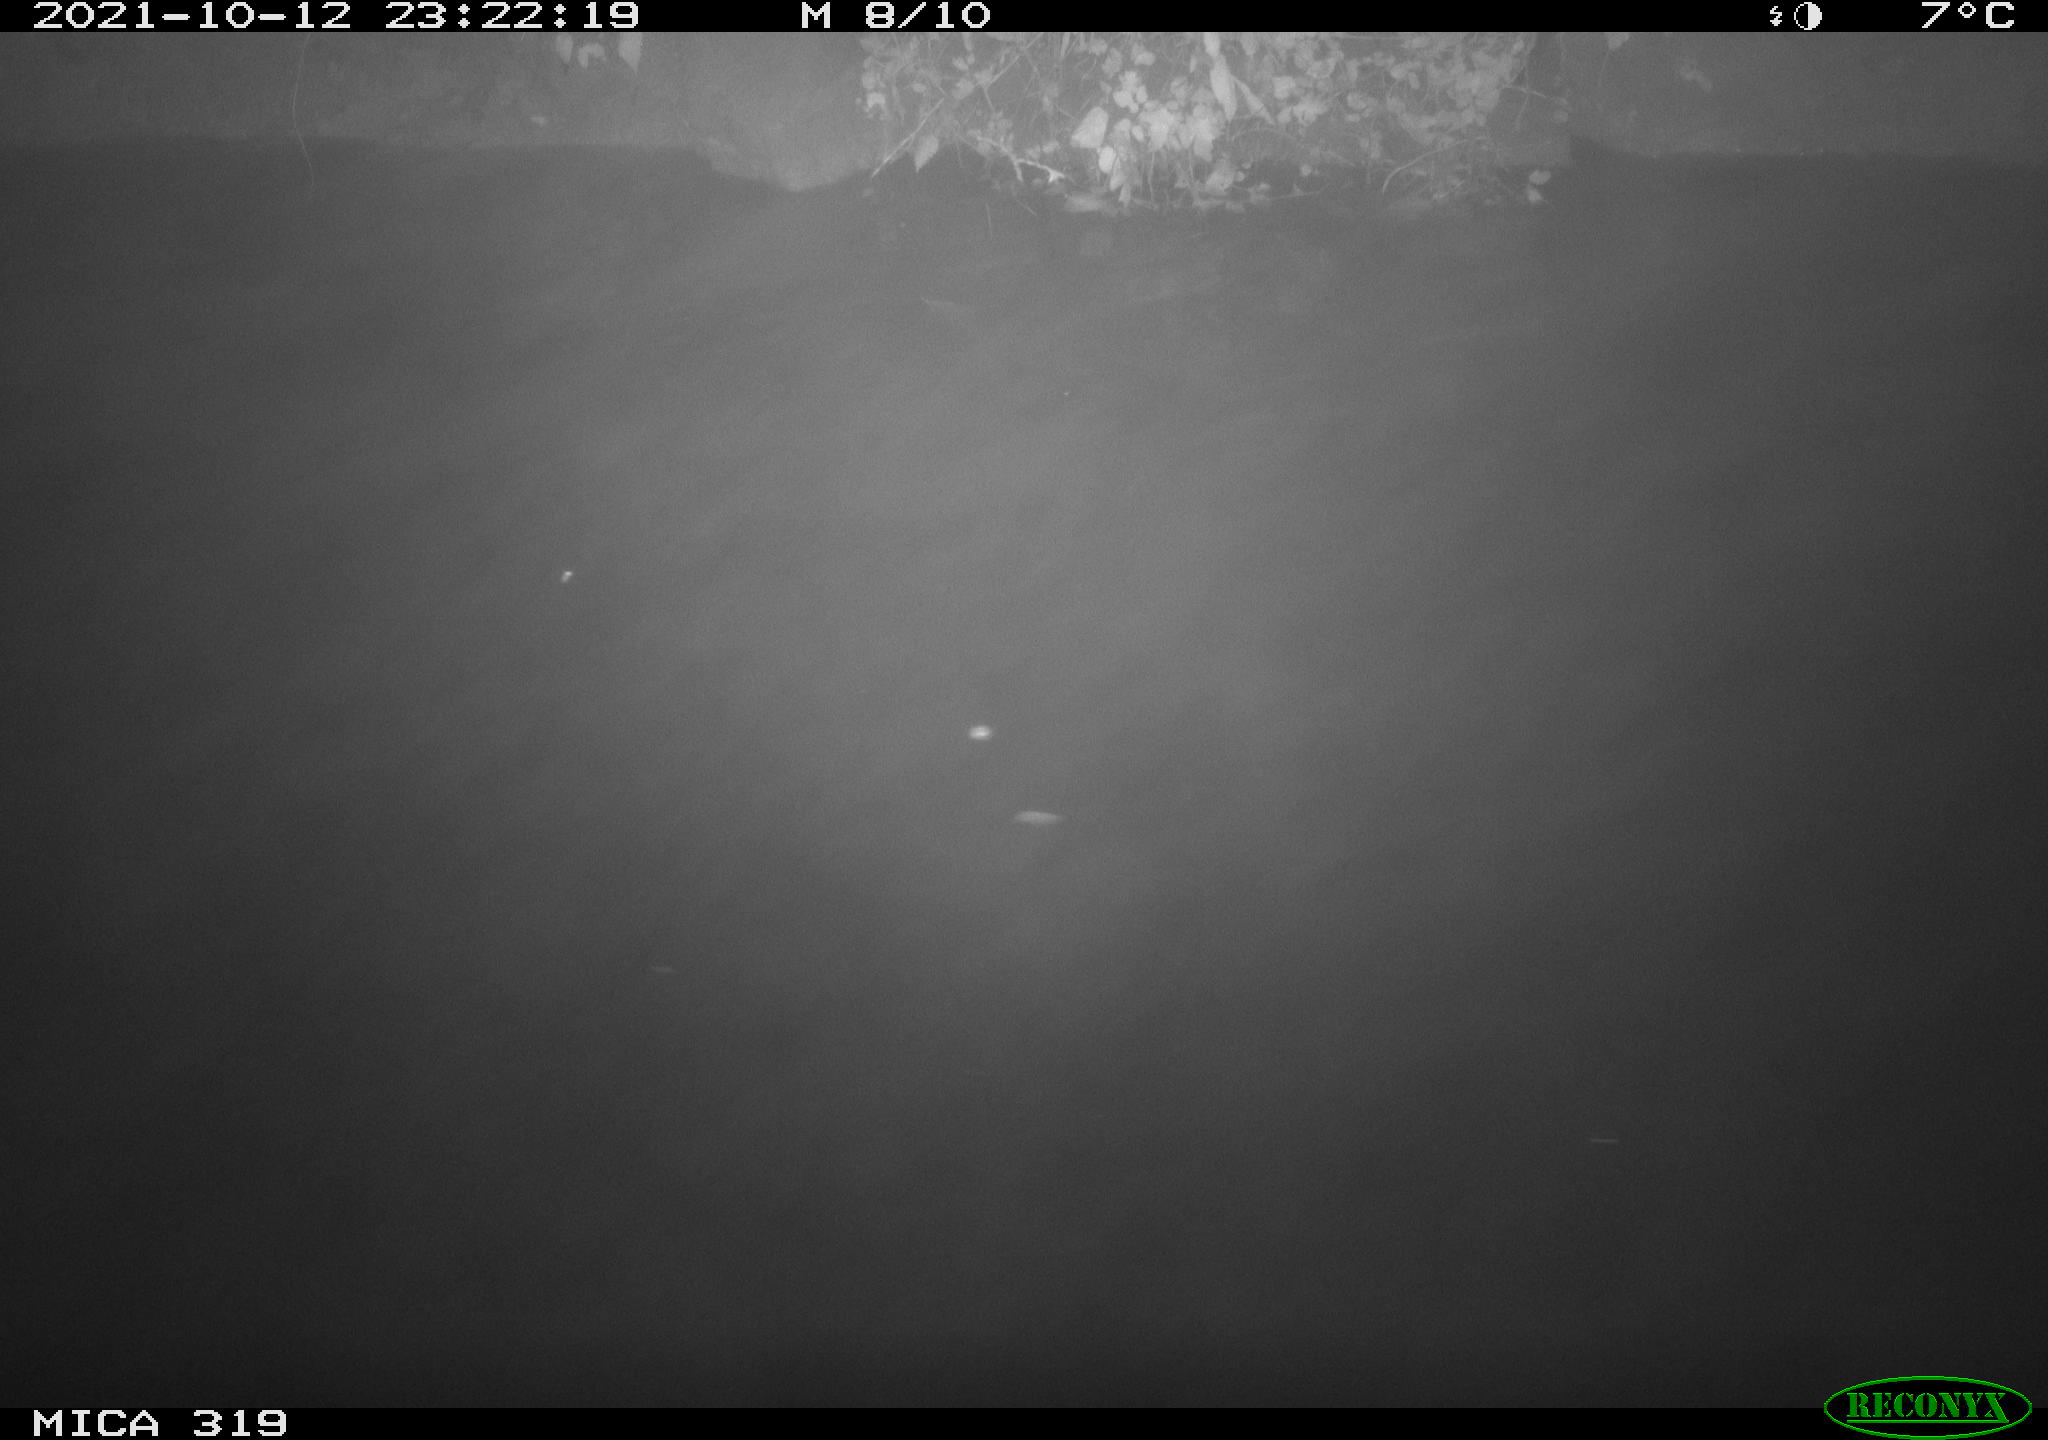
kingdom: Animalia
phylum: Chordata
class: Aves
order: Anseriformes
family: Anatidae
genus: Anas
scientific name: Anas platyrhynchos
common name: Mallard
